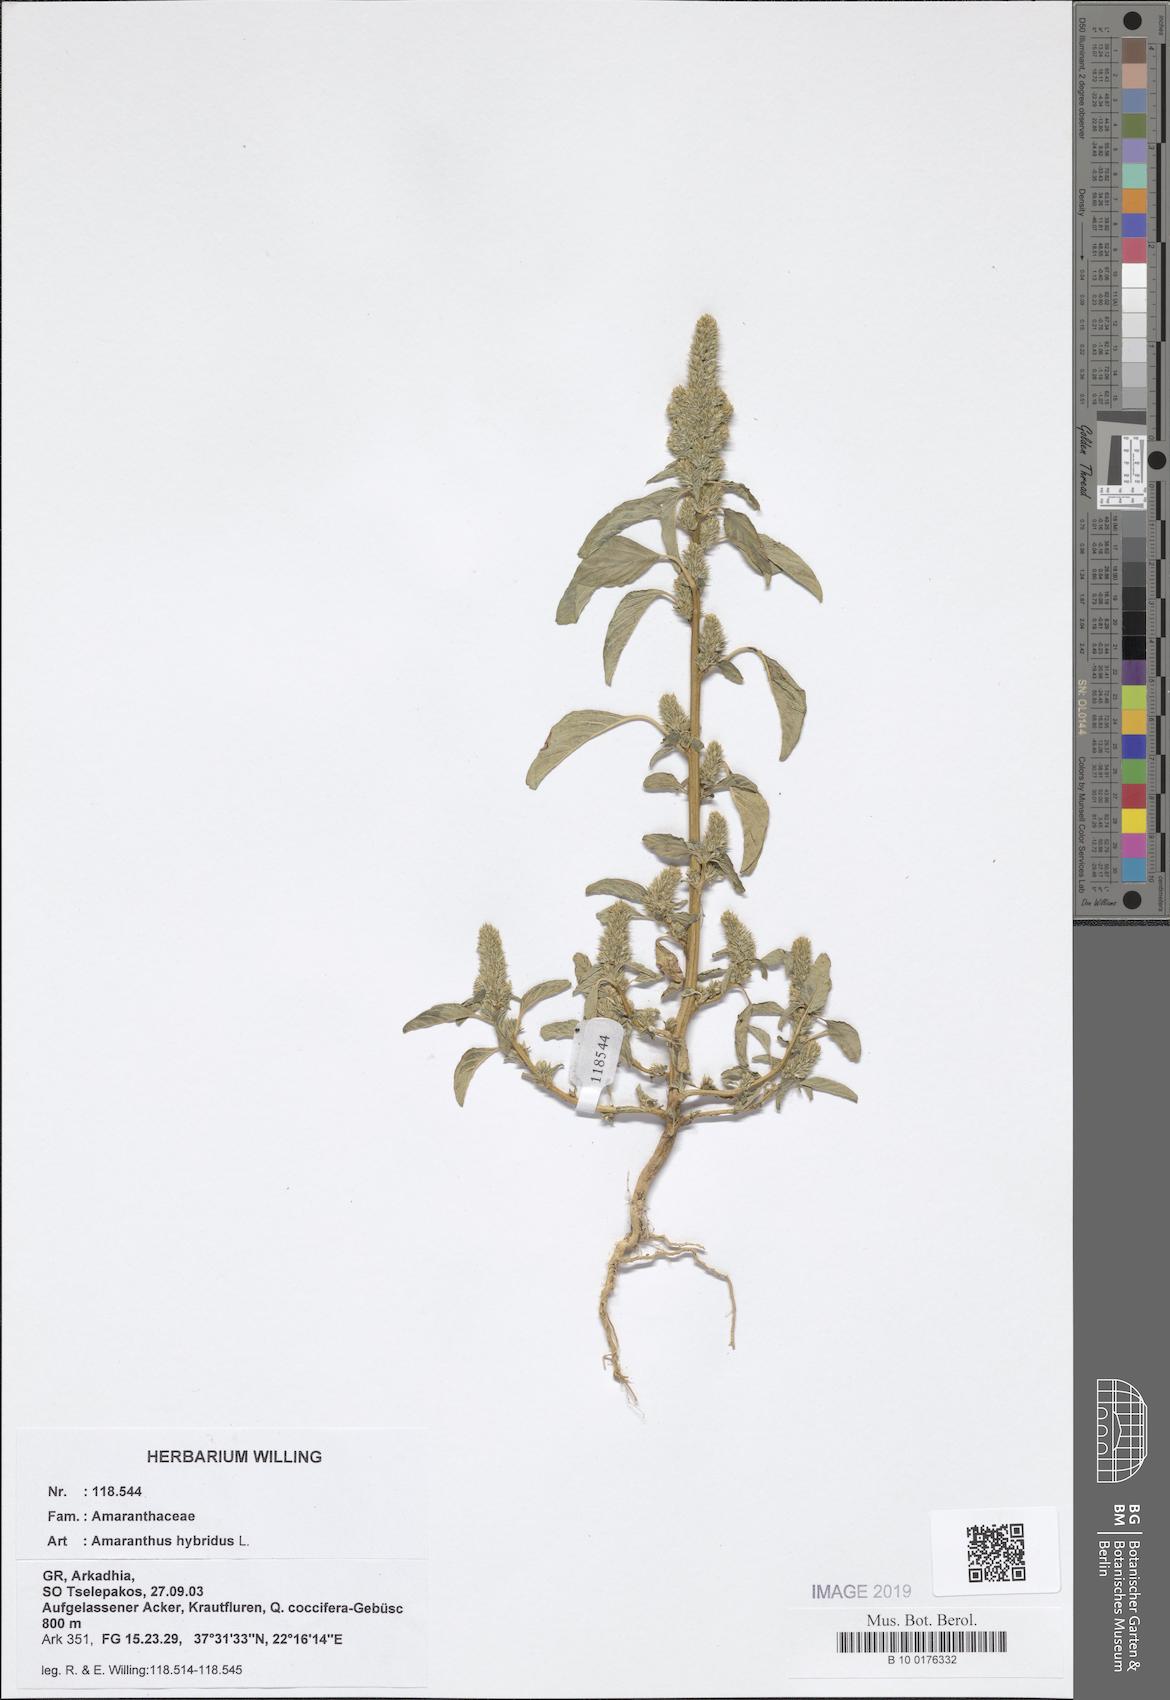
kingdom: Plantae
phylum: Tracheophyta
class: Magnoliopsida
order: Caryophyllales
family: Amaranthaceae
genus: Amaranthus
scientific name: Amaranthus hybridus
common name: Green amaranth
